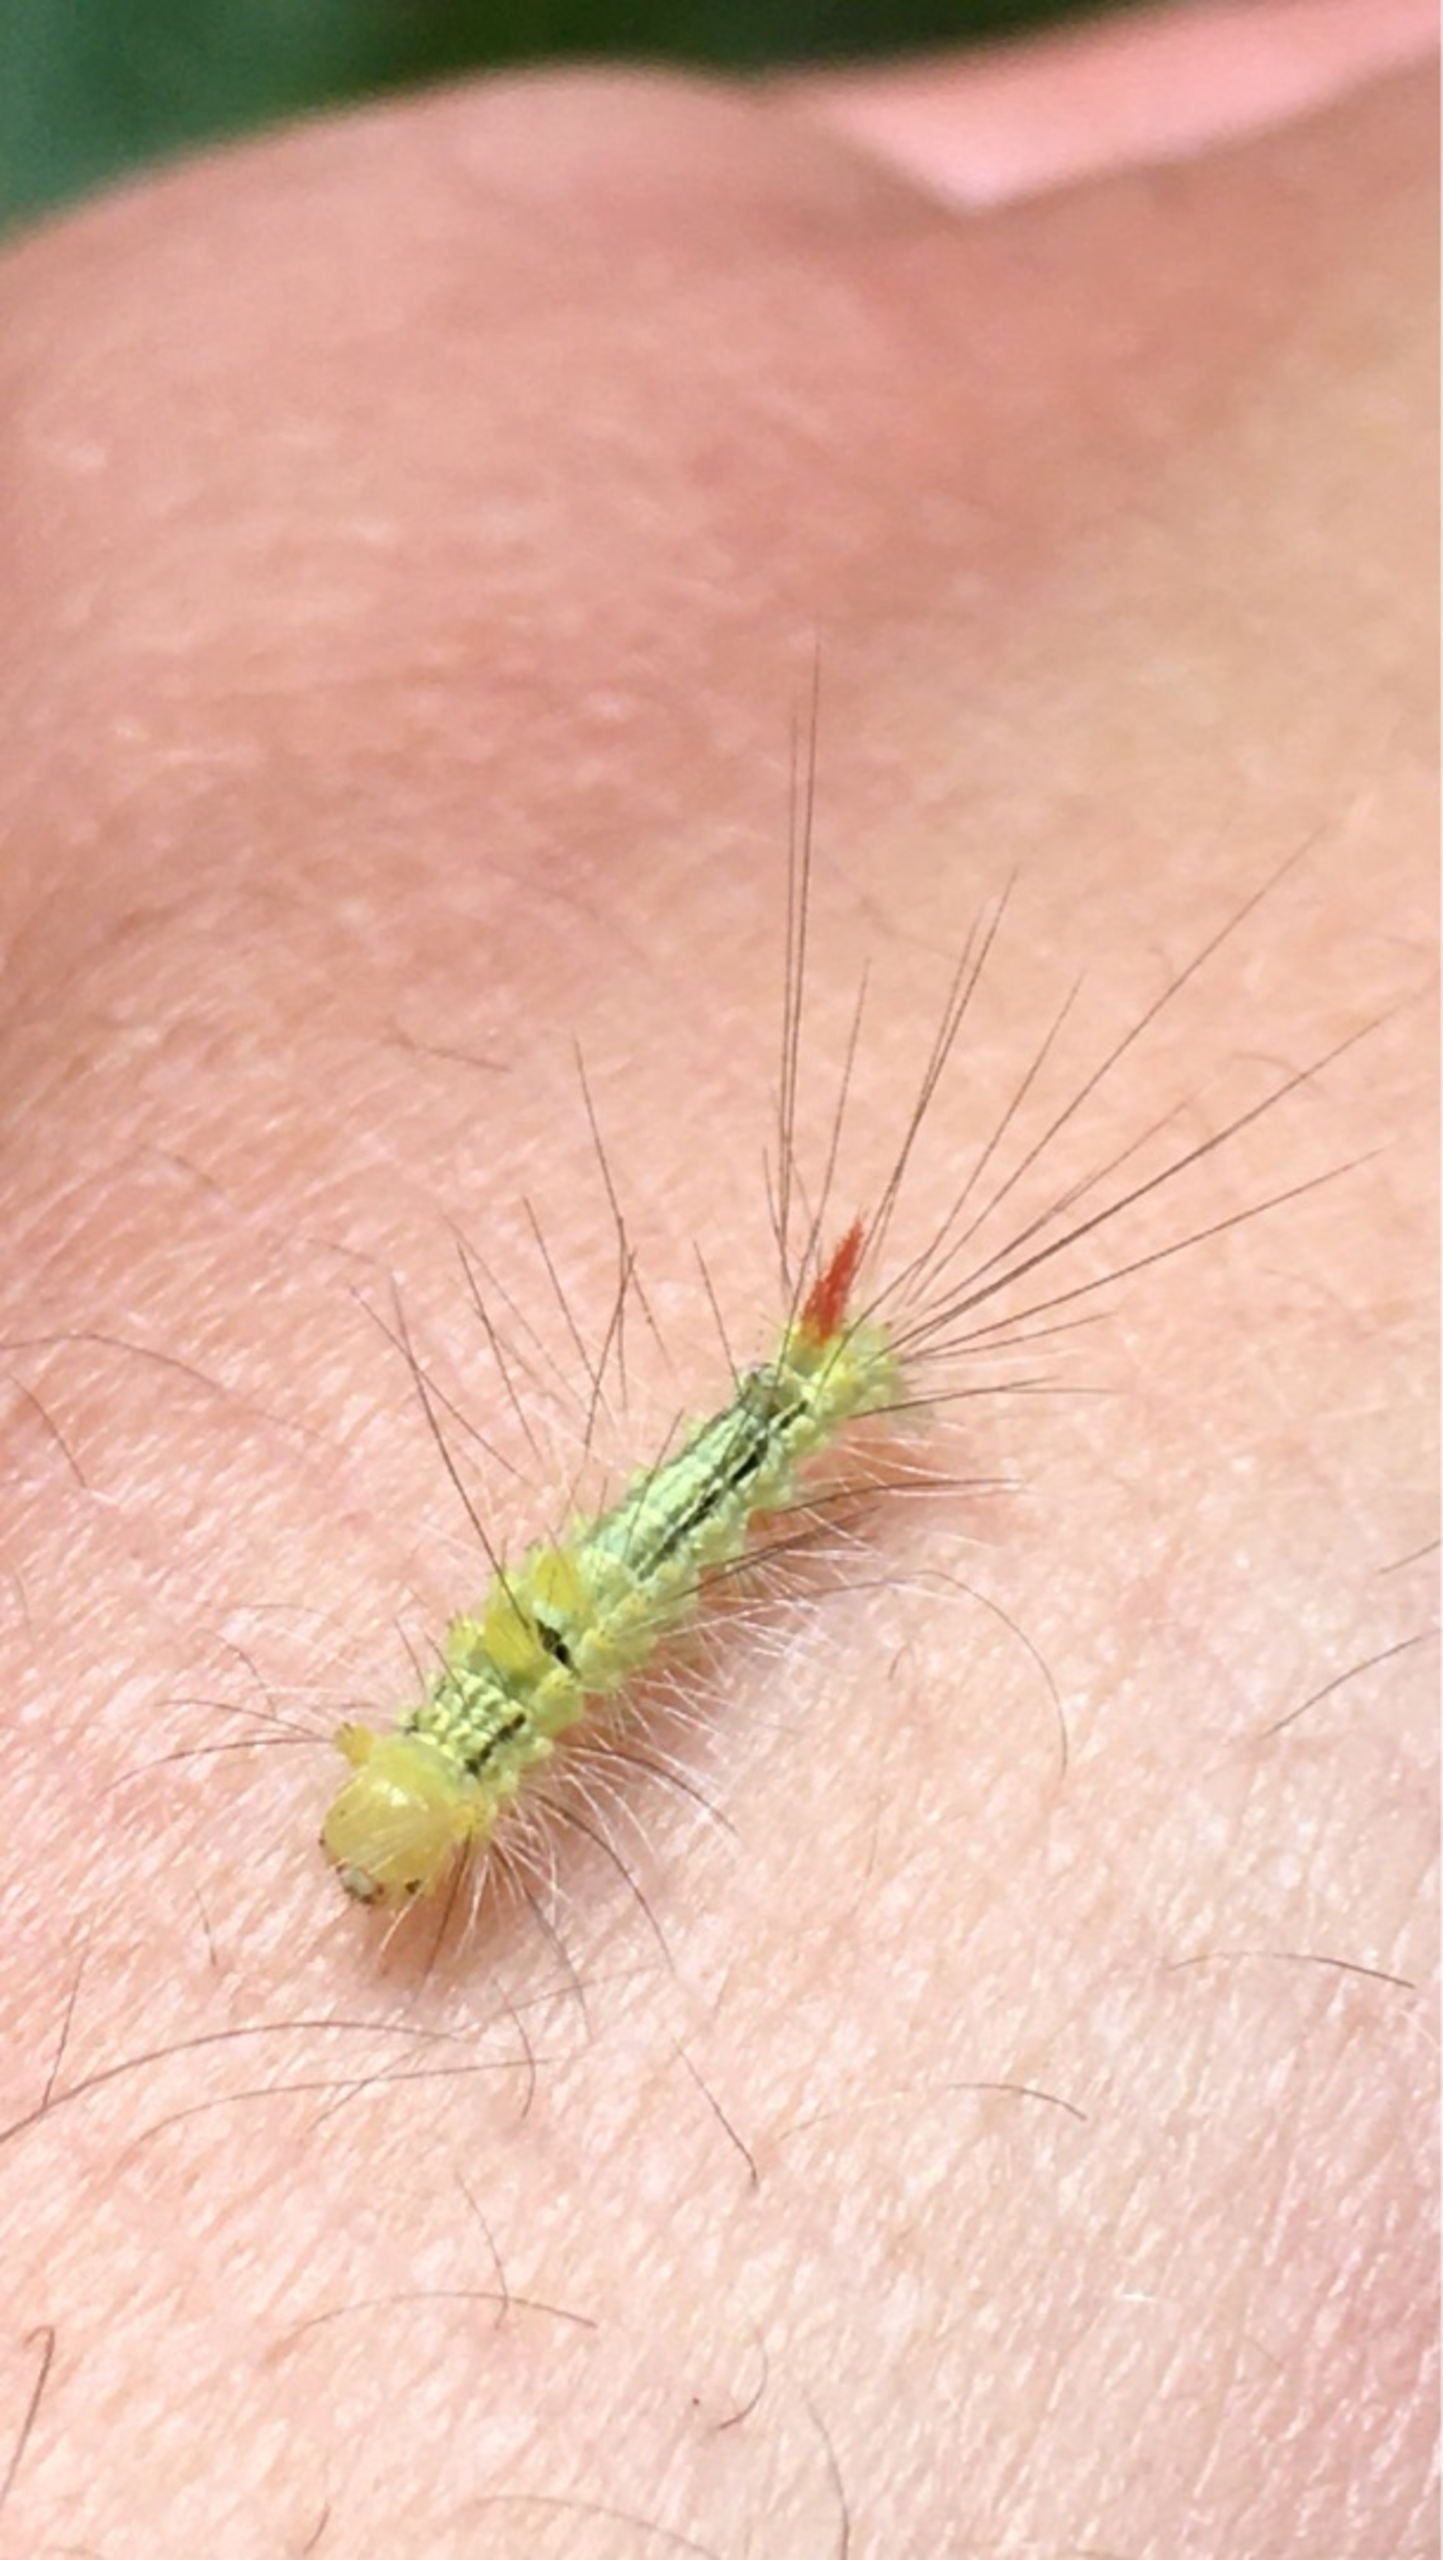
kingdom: Animalia
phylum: Arthropoda
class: Insecta
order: Lepidoptera
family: Erebidae
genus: Calliteara
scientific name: Calliteara pudibunda
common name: Bøgenonne
